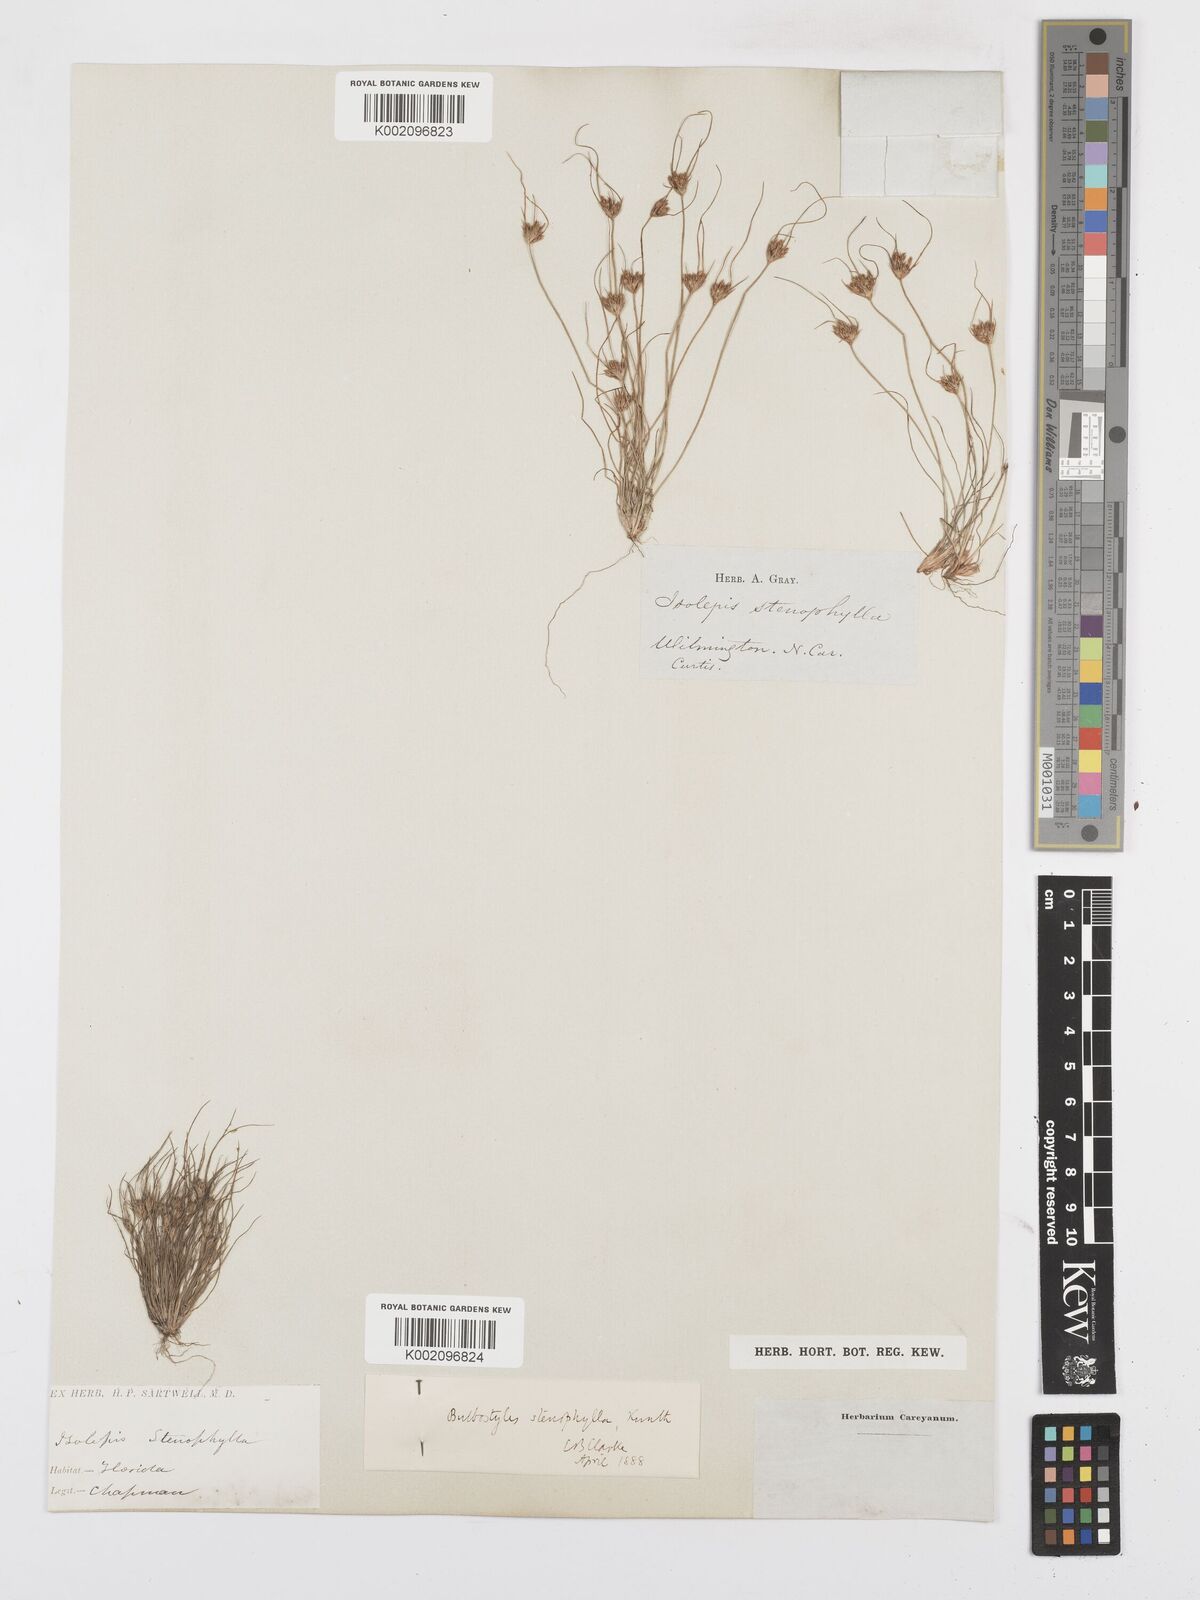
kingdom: Plantae
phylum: Tracheophyta
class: Liliopsida
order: Poales
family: Cyperaceae
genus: Bulbostylis
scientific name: Bulbostylis rarissima
